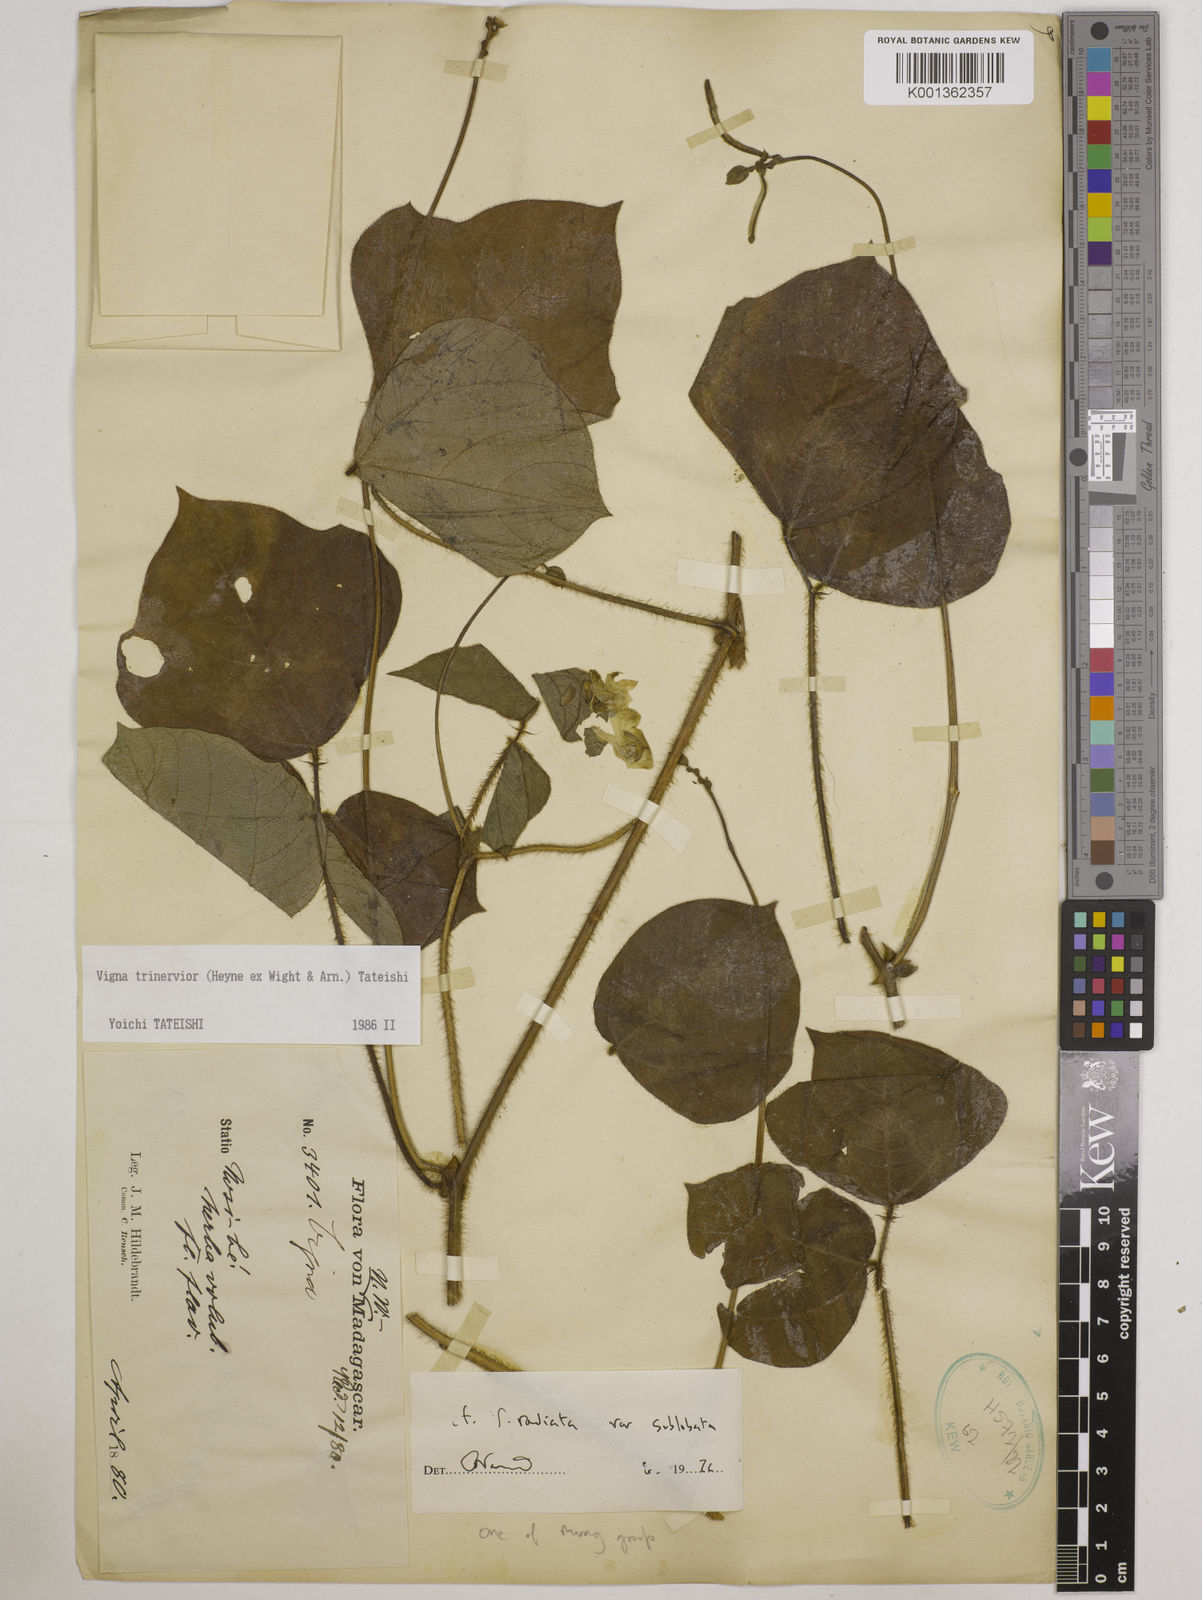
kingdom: Plantae
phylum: Tracheophyta
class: Magnoliopsida
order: Fabales
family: Fabaceae
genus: Vigna
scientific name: Vigna radiata
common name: Mung-bean
